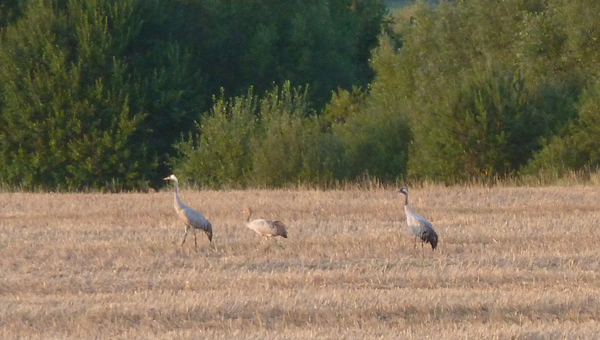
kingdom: Animalia
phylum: Chordata
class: Aves
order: Gruiformes
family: Gruidae
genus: Grus
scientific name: Grus grus
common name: Common crane
